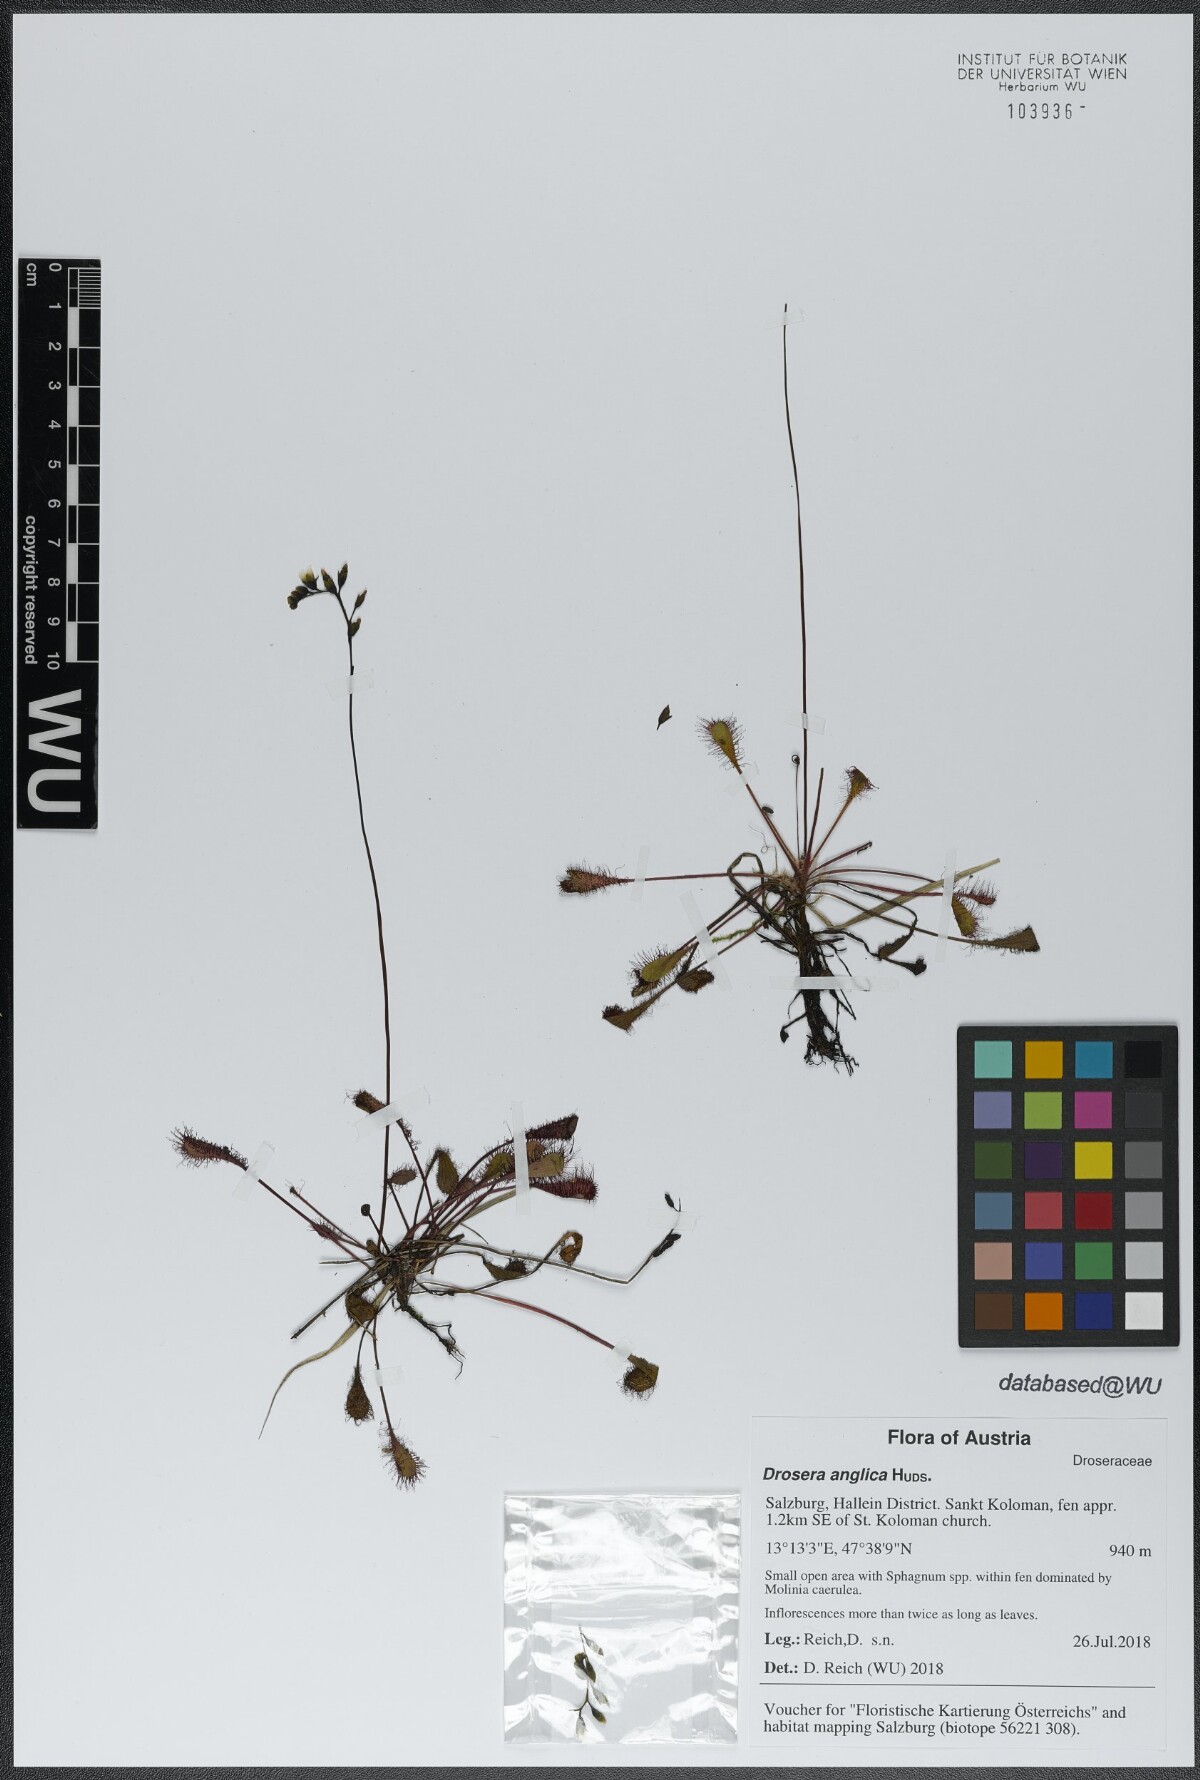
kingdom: Plantae
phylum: Tracheophyta
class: Magnoliopsida
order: Caryophyllales
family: Droseraceae
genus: Drosera
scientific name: Drosera anglica
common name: Great sundew
